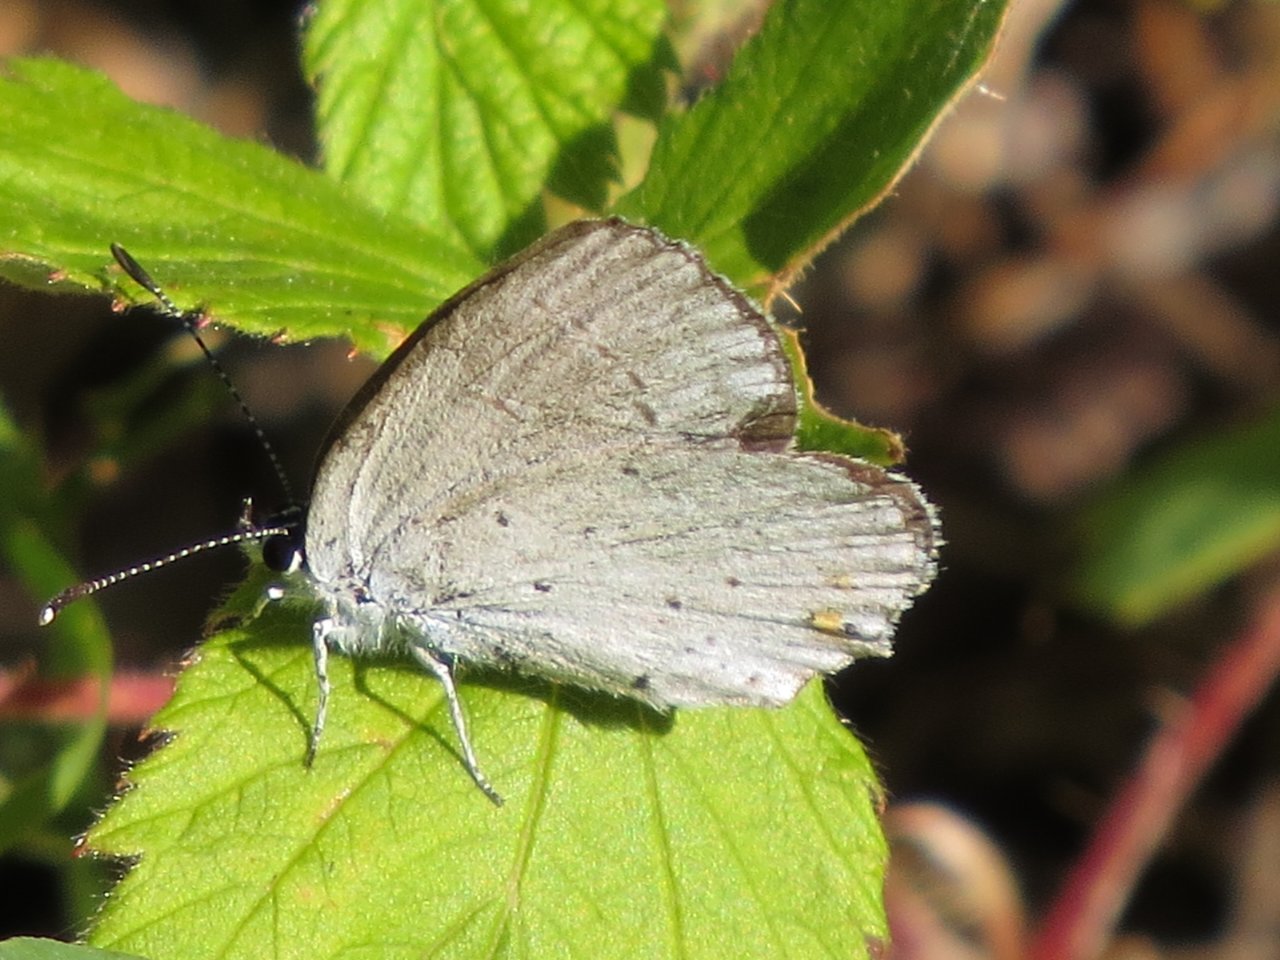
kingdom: Animalia
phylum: Arthropoda
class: Insecta
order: Lepidoptera
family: Lycaenidae
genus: Elkalyce
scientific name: Elkalyce amyntula
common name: Western Tailed-Blue
